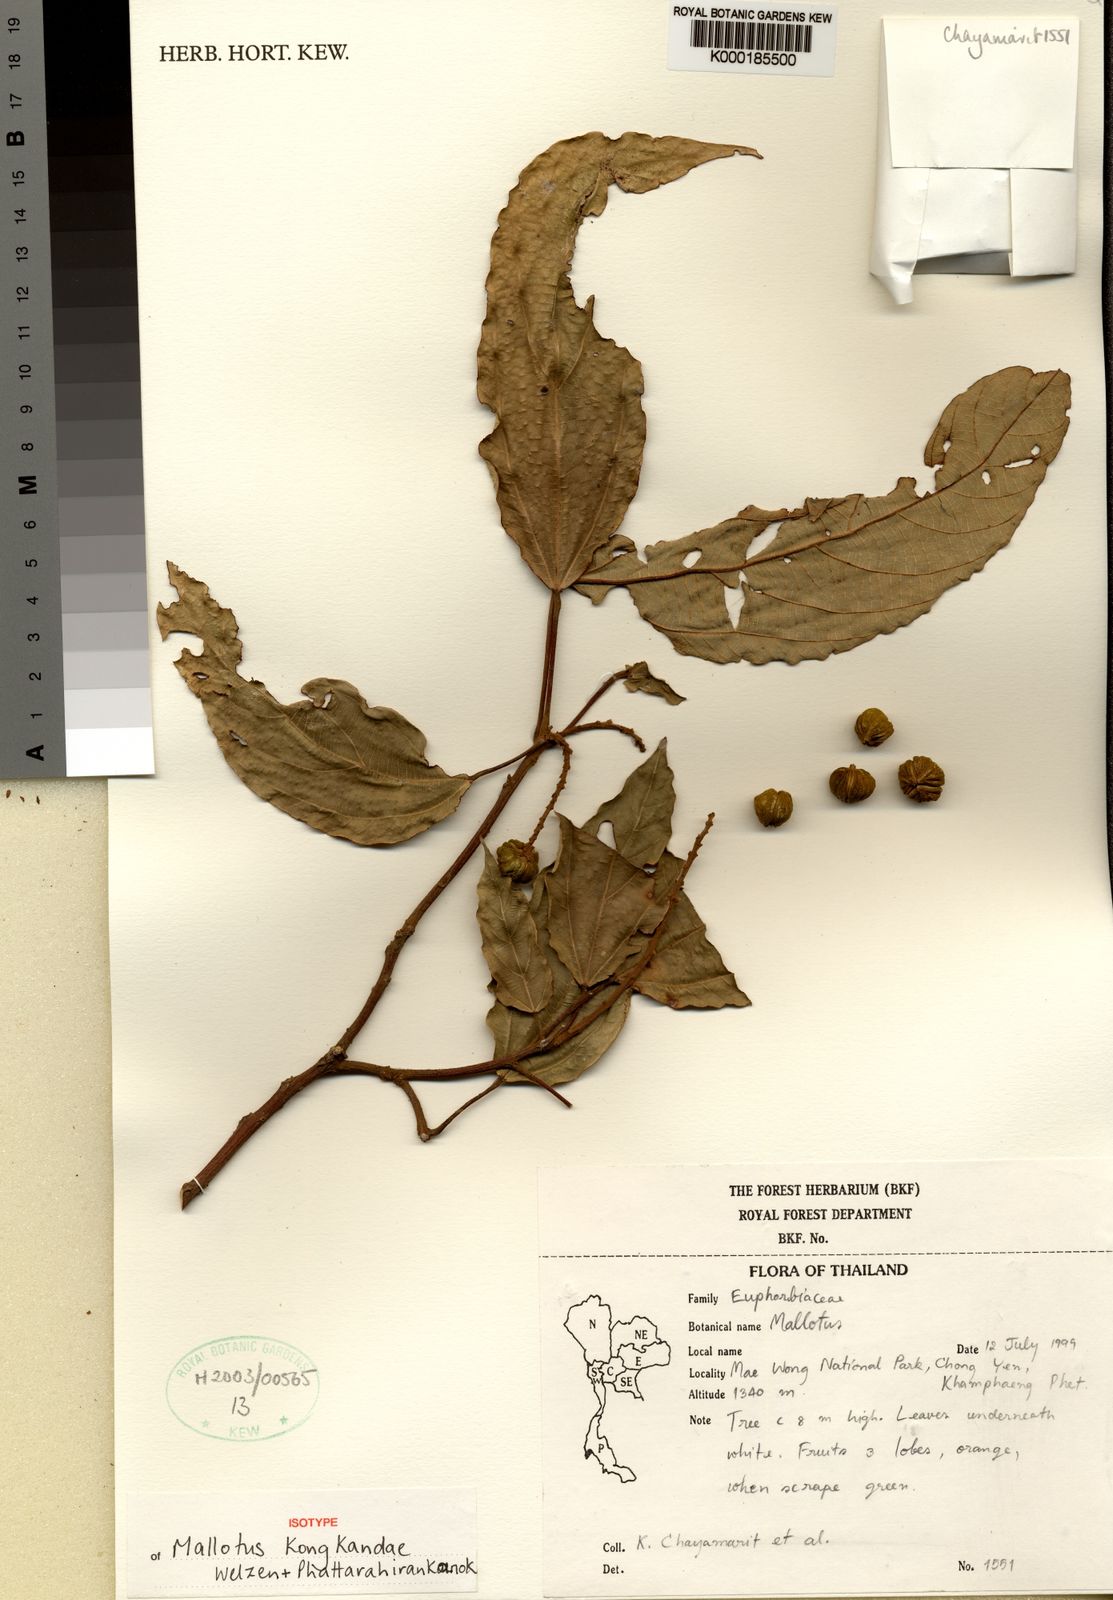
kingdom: Plantae
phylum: Tracheophyta
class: Magnoliopsida
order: Malpighiales
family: Euphorbiaceae
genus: Mallotus
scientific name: Mallotus kongkandae
